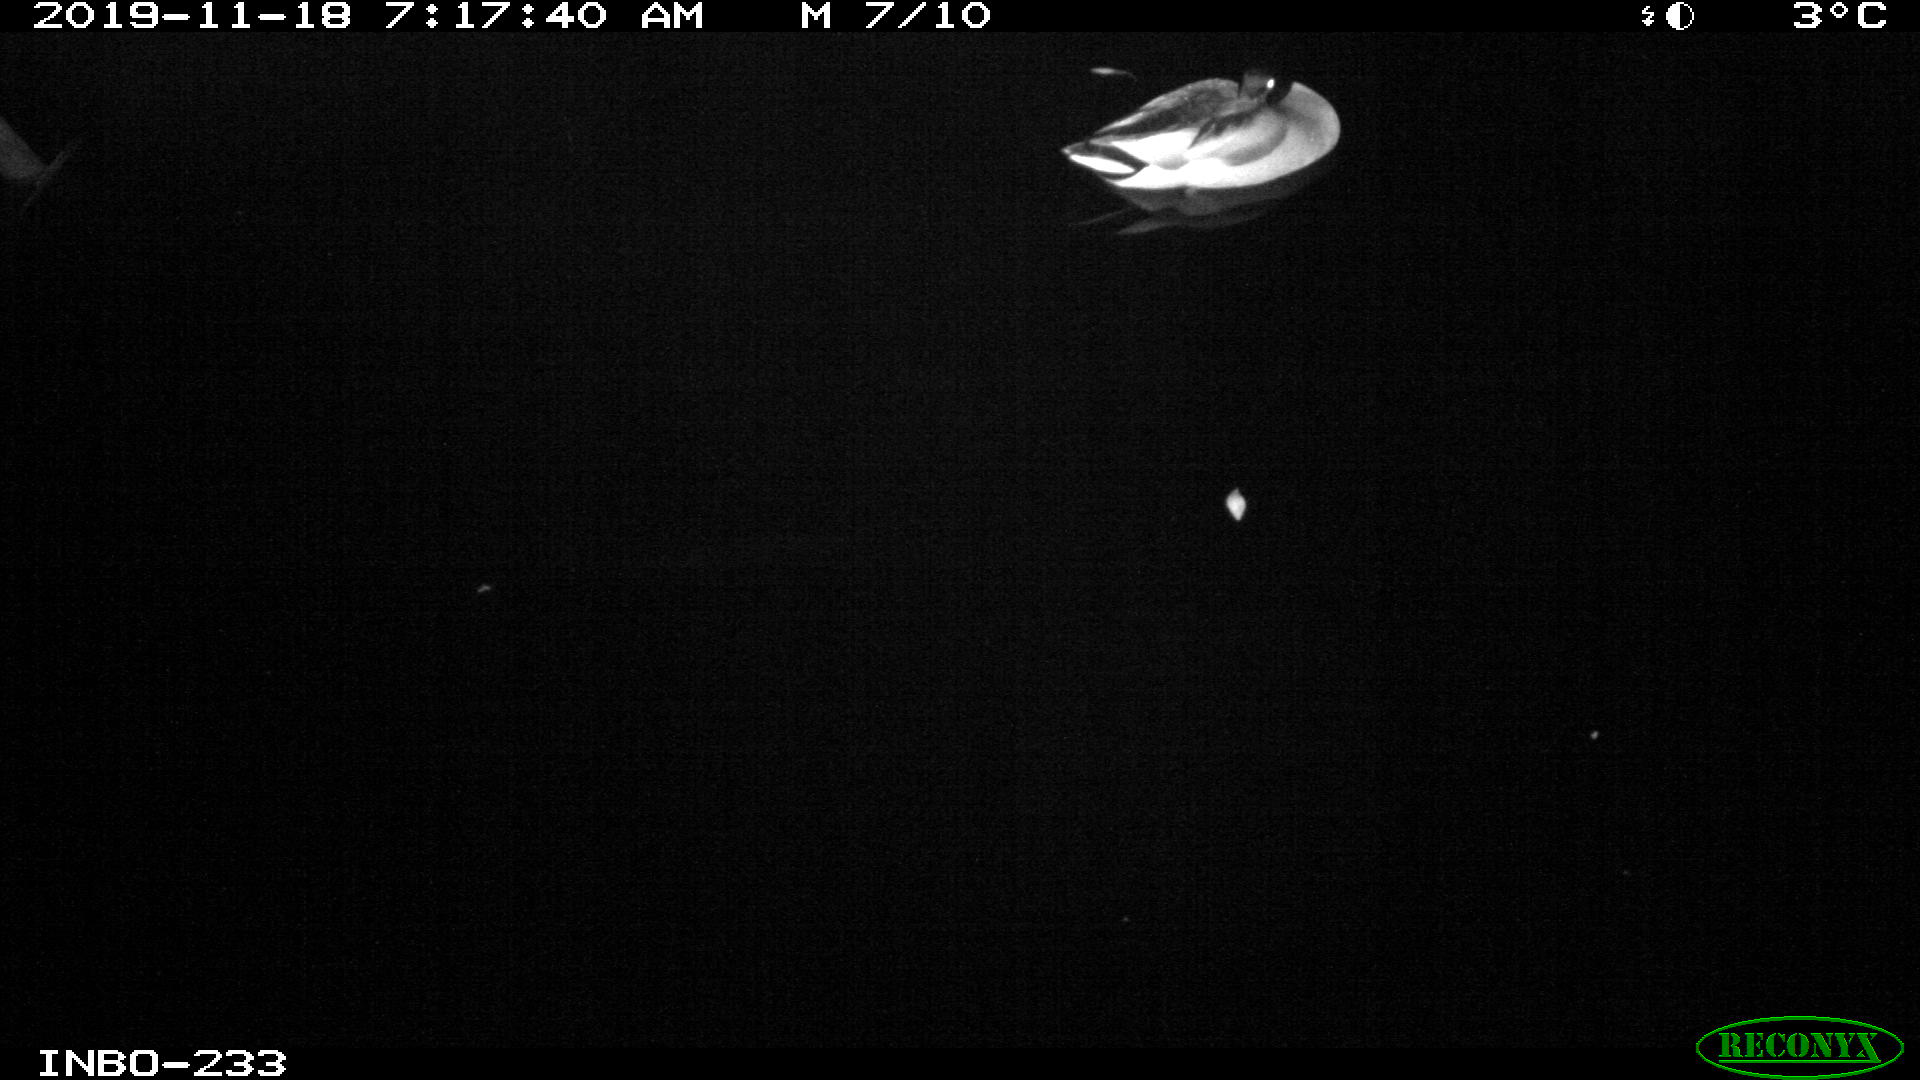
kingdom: Animalia
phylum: Chordata
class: Aves
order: Anseriformes
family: Anatidae
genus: Anas
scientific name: Anas platyrhynchos
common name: Mallard
